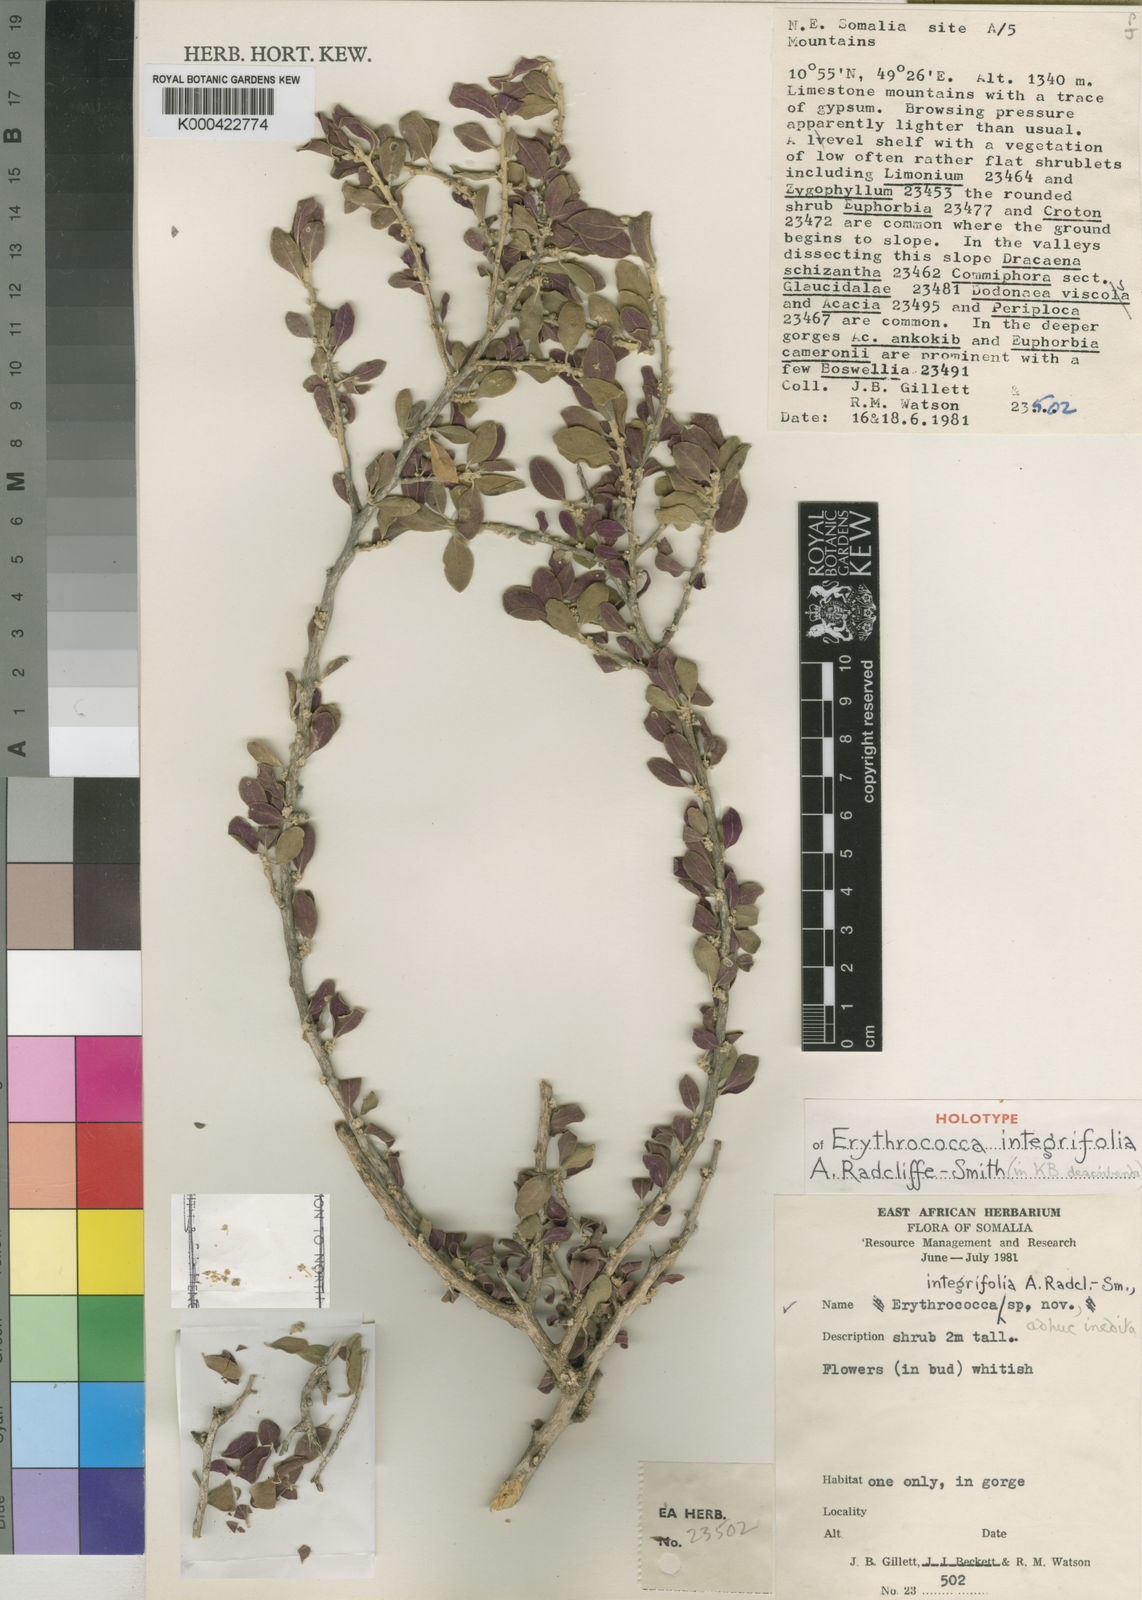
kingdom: Plantae
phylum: Tracheophyta
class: Magnoliopsida
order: Malpighiales
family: Euphorbiaceae
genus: Erythrococca
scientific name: Erythrococca integrifolia
